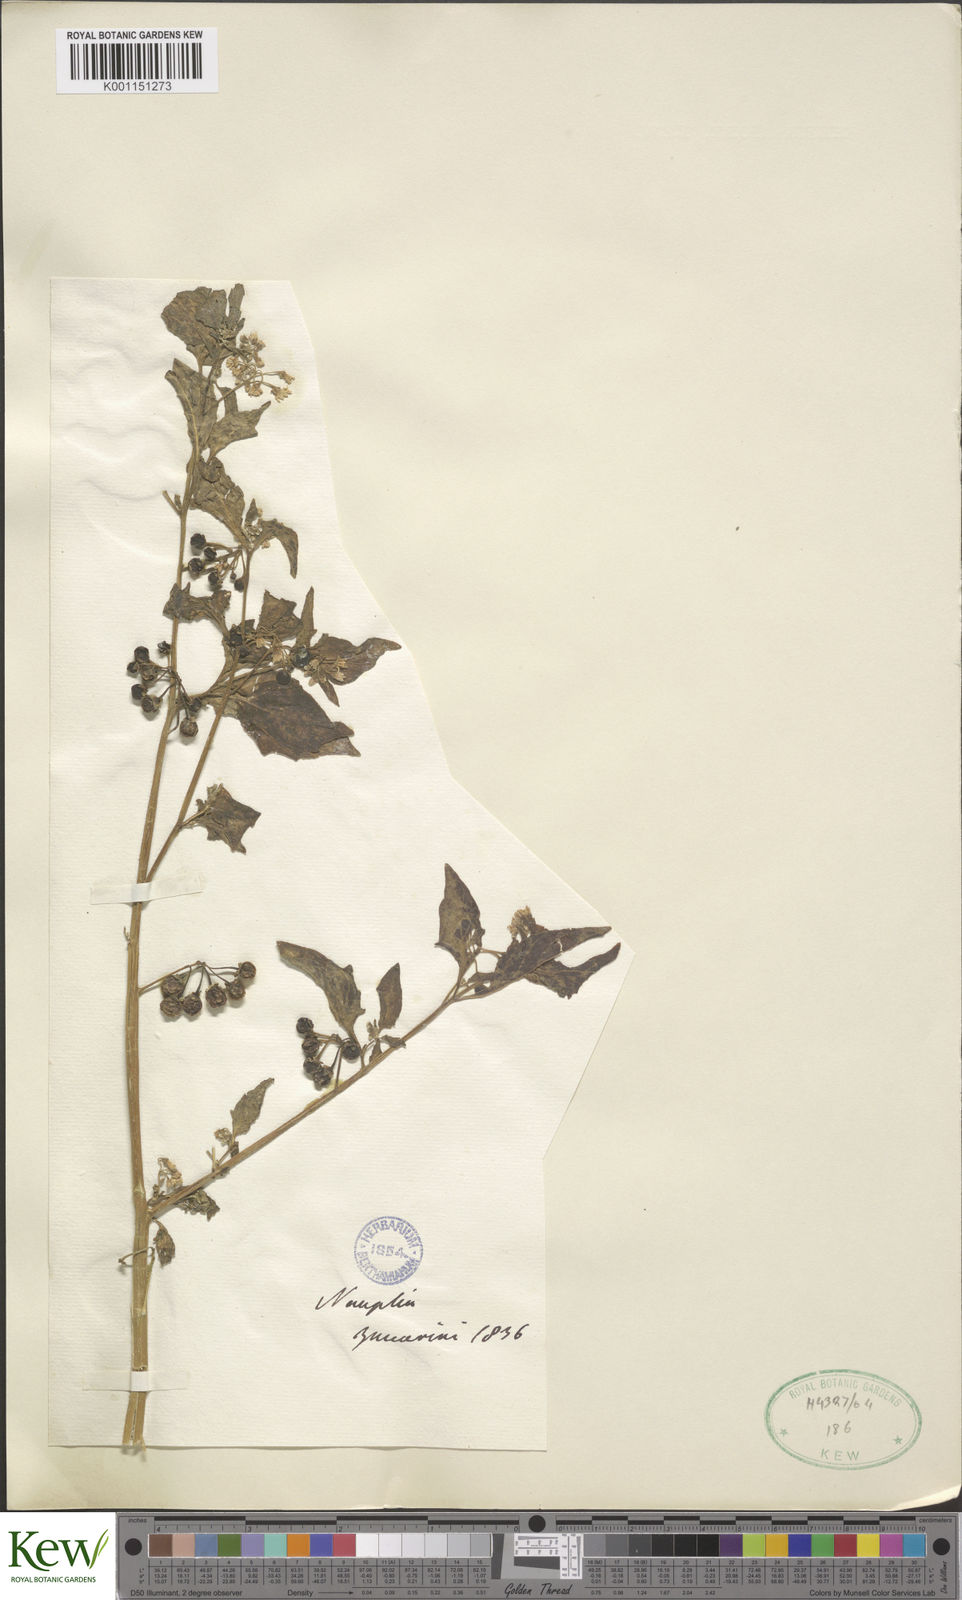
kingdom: Plantae
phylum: Tracheophyta
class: Magnoliopsida
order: Solanales
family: Solanaceae
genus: Solanum
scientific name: Solanum nigrum
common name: Black nightshade
